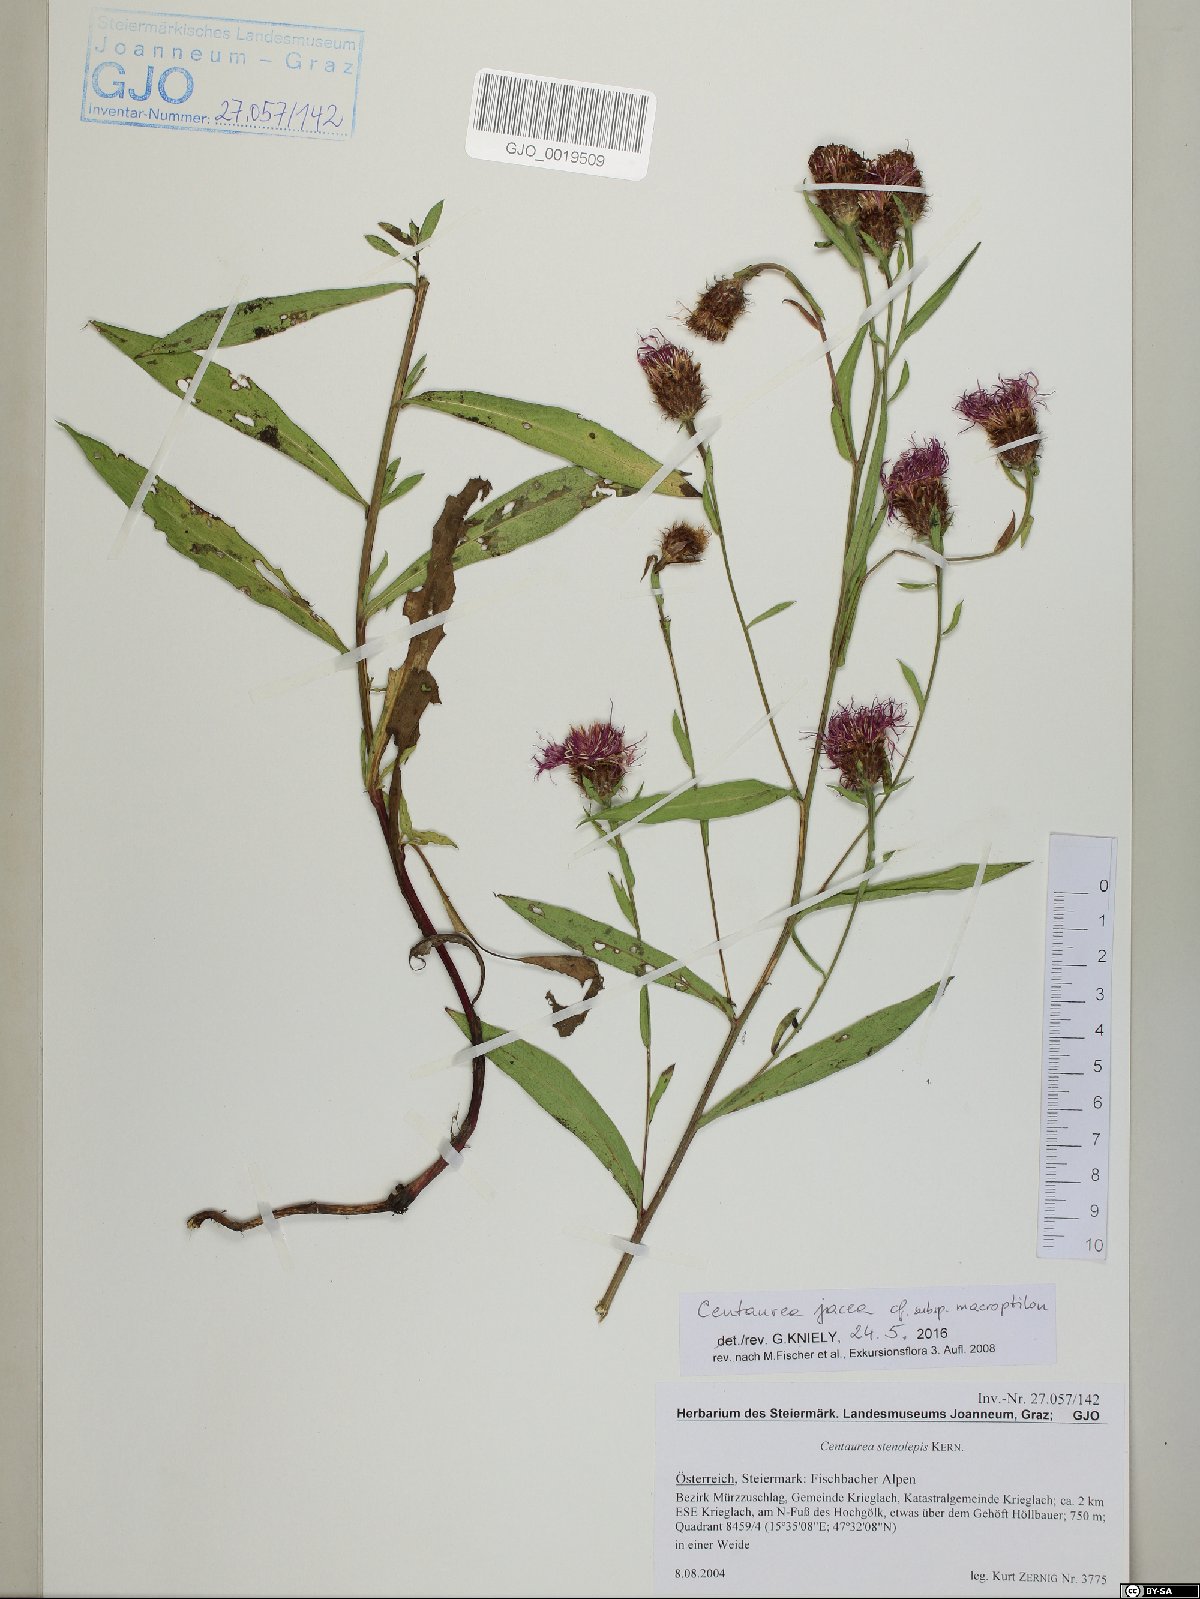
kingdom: Plantae
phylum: Tracheophyta
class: Magnoliopsida
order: Asterales
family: Asteraceae
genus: Centaurea
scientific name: Centaurea
